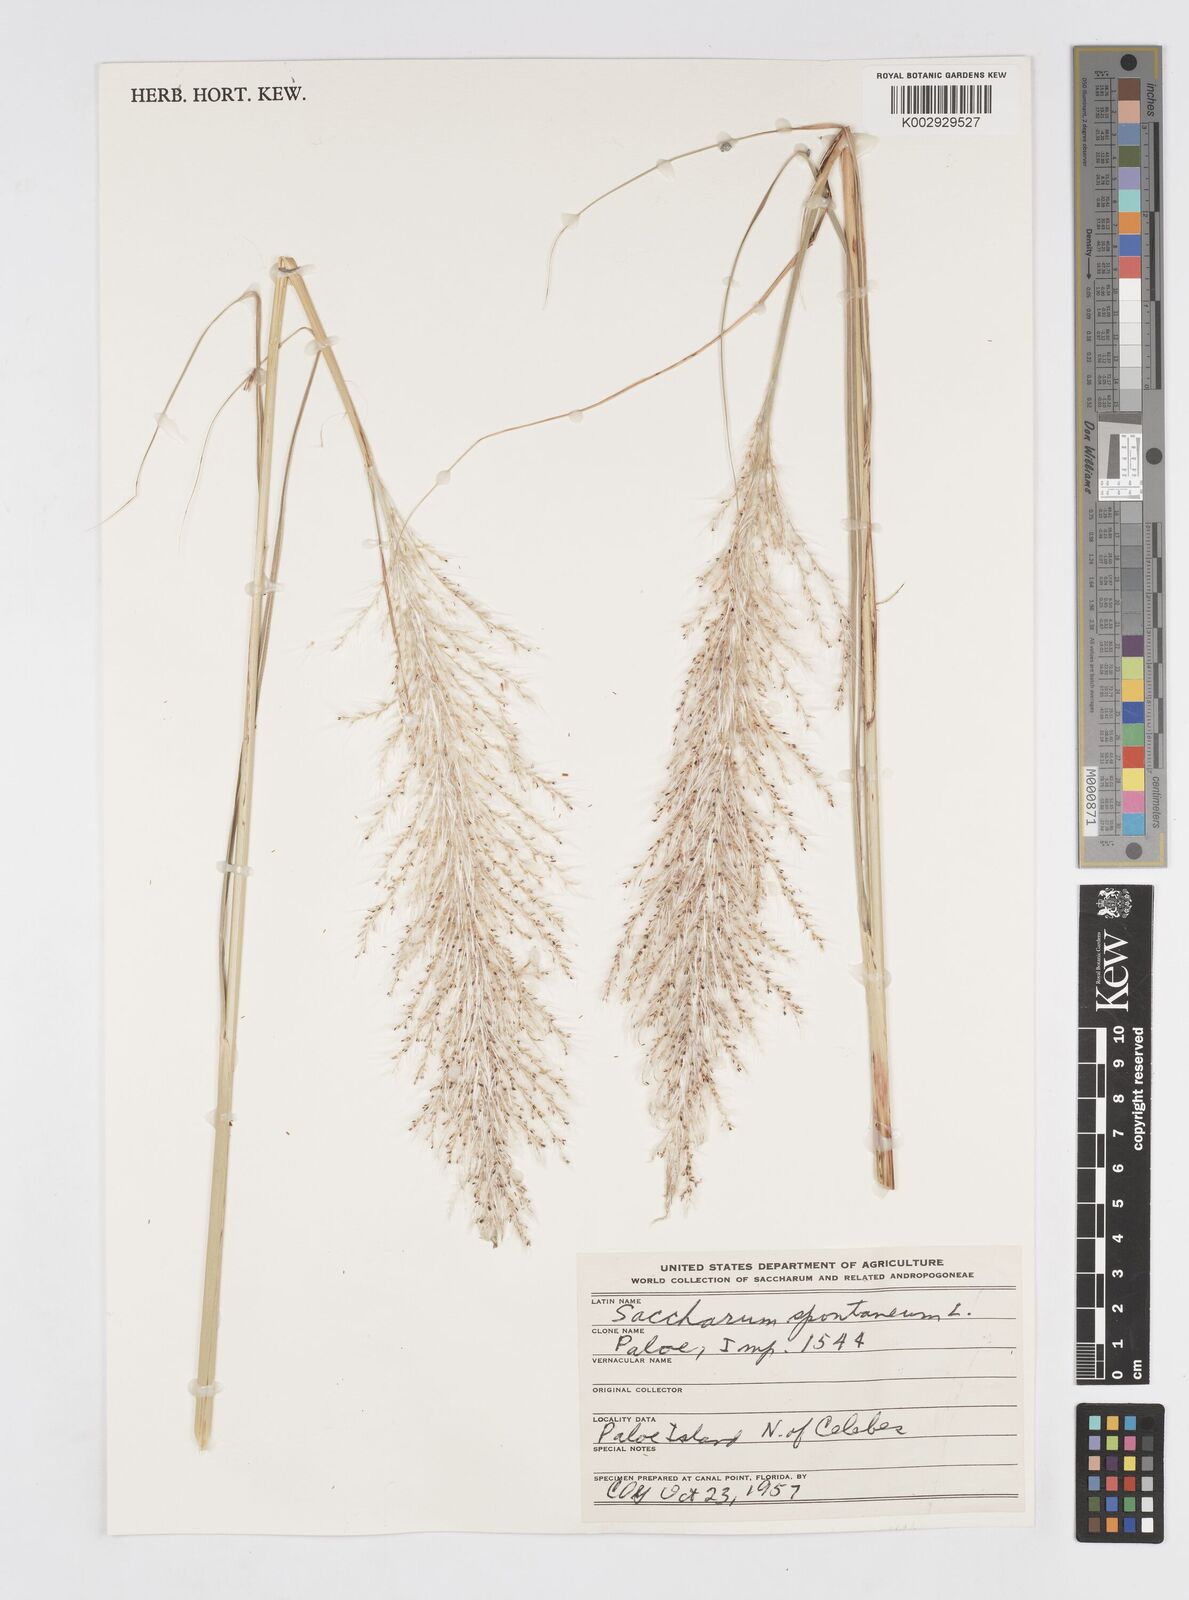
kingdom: Plantae
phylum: Tracheophyta
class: Liliopsida
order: Poales
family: Poaceae
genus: Saccharum
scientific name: Saccharum spontaneum
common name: Wild sugarcane
